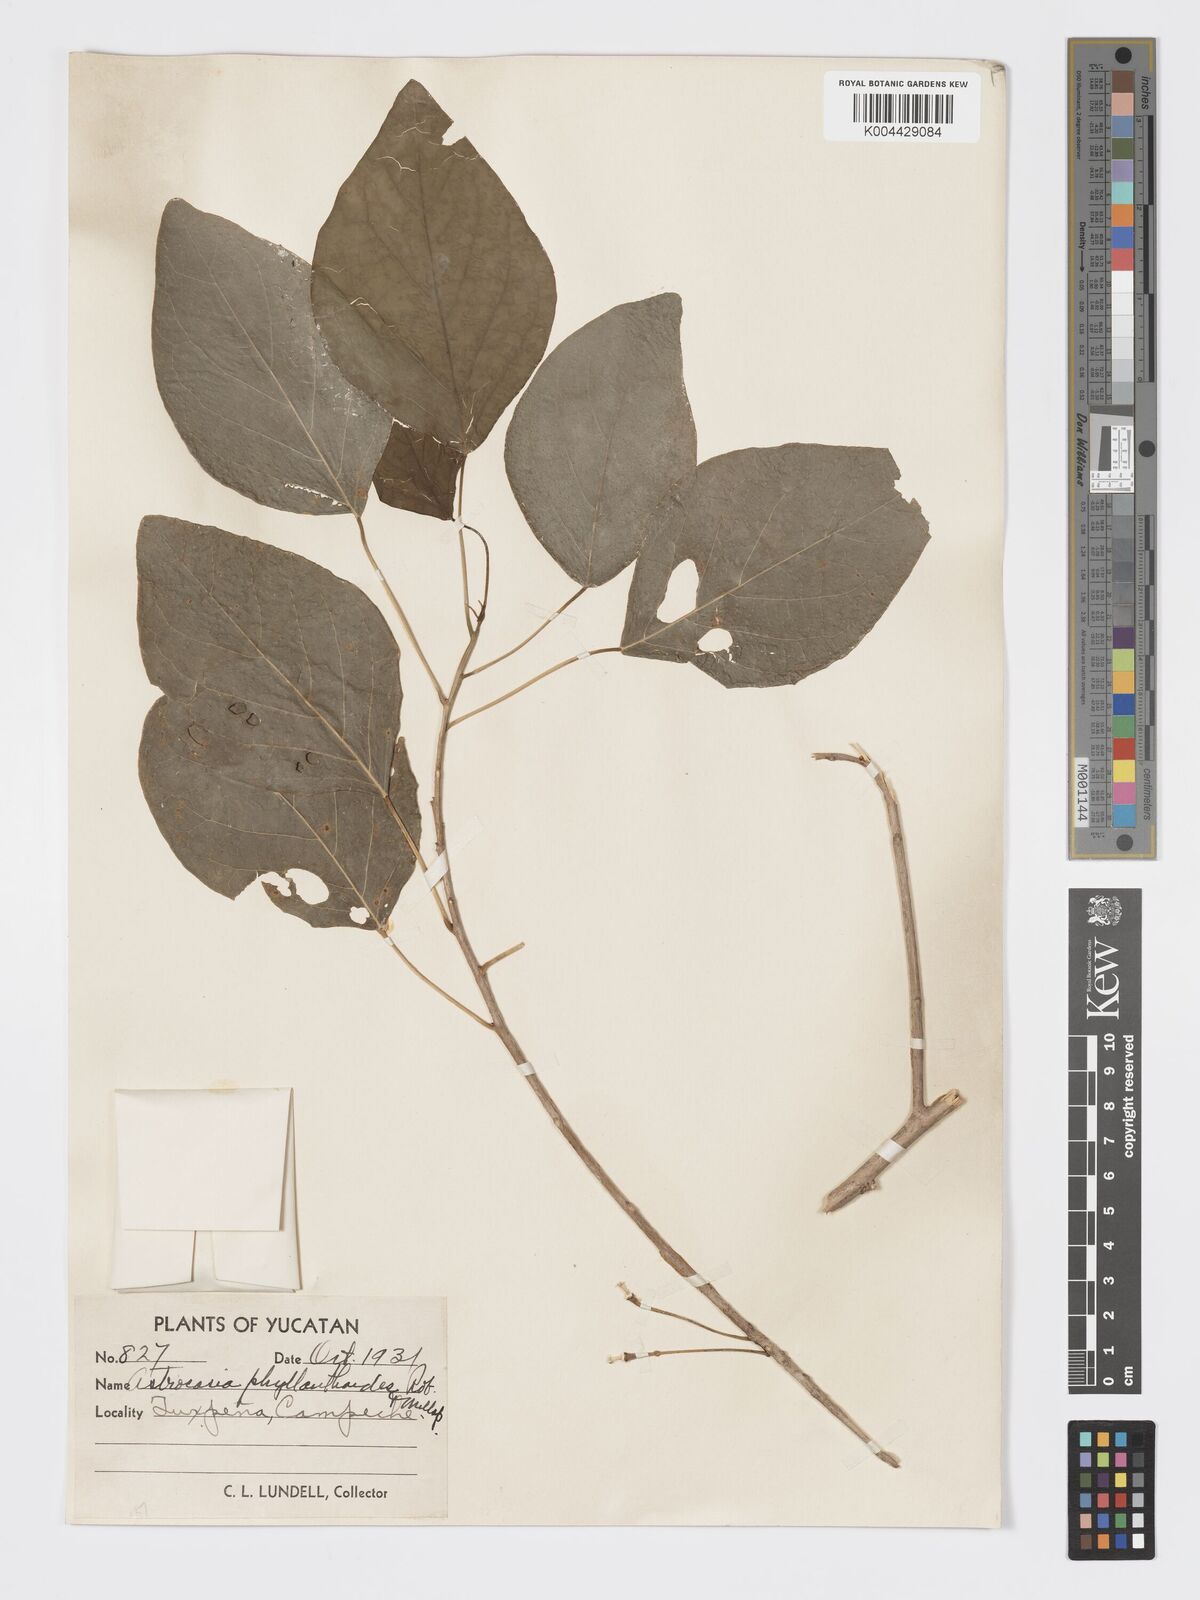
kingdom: Plantae
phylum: Tracheophyta
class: Magnoliopsida
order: Malpighiales
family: Phyllanthaceae
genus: Astrocasia
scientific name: Astrocasia tremula
